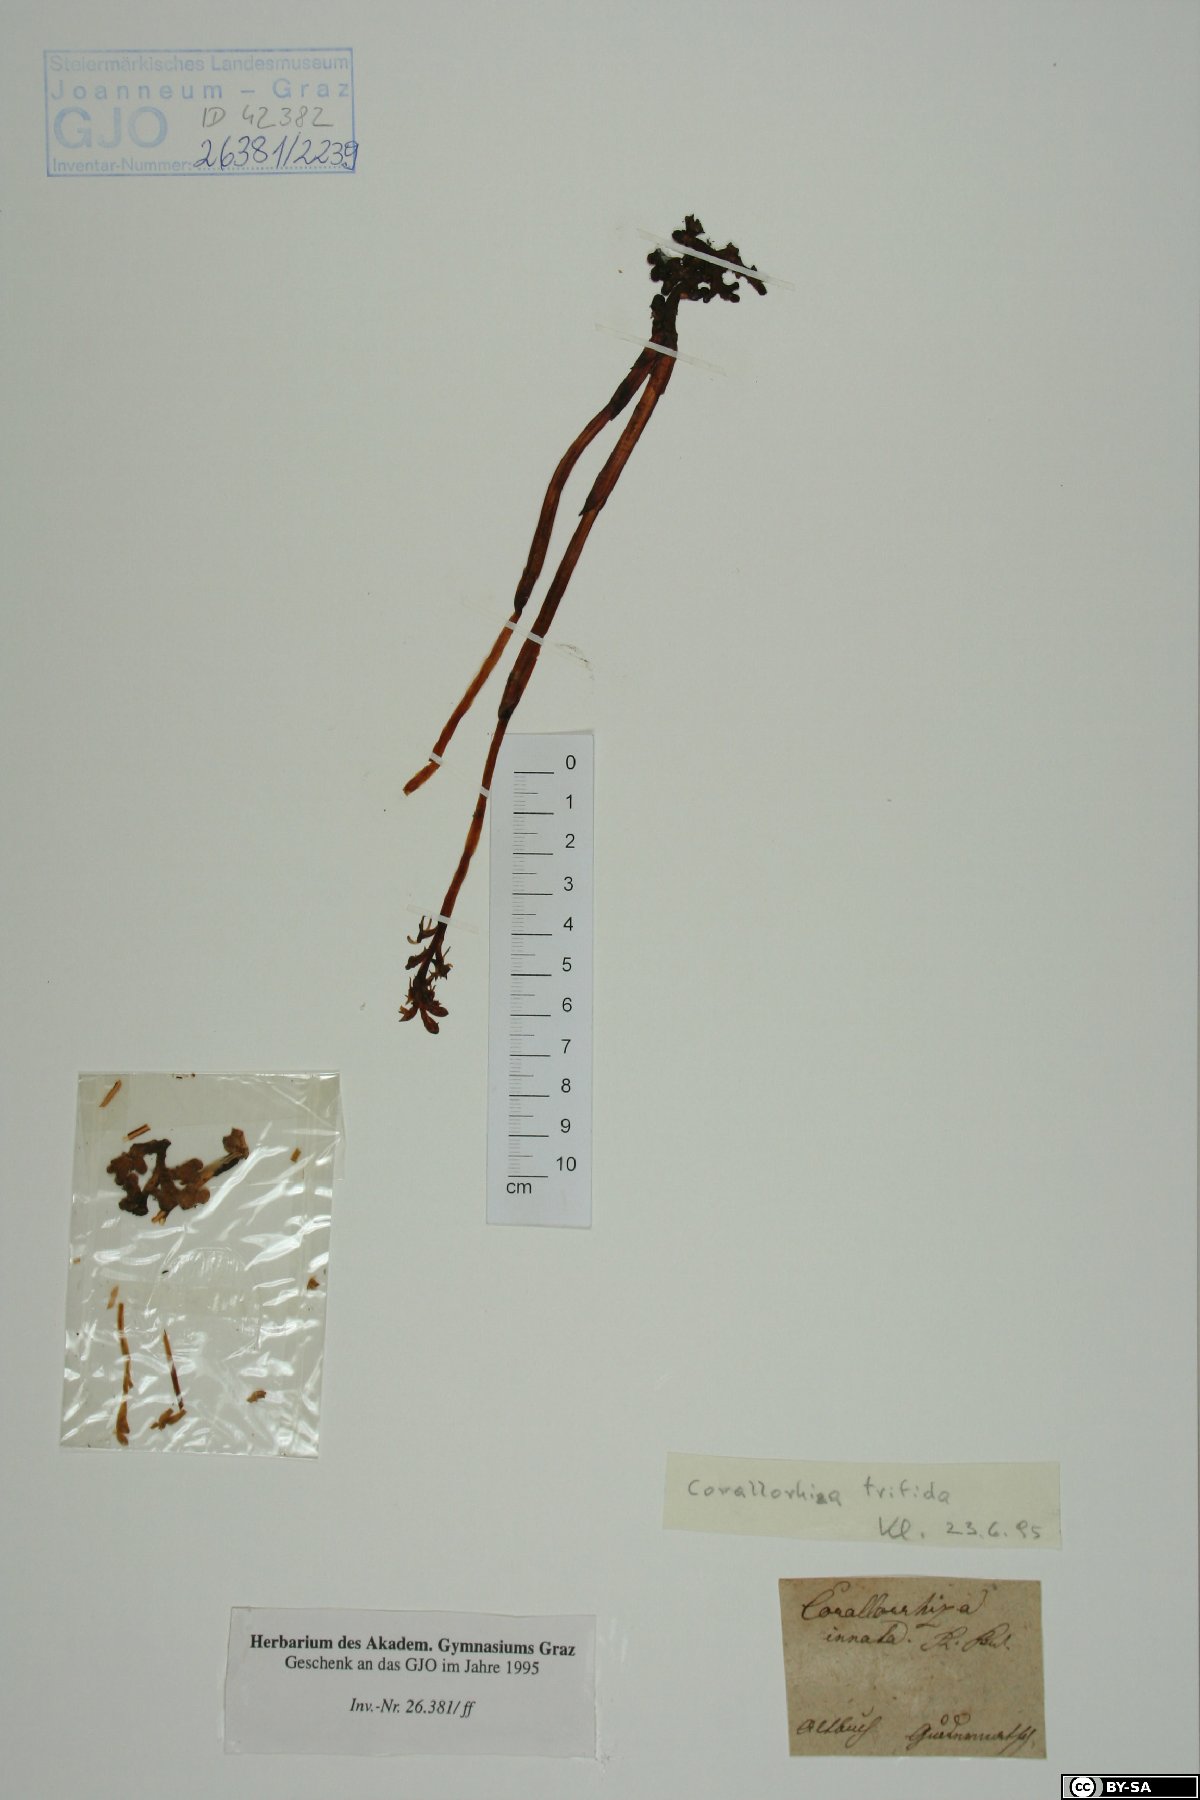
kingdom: Plantae
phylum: Tracheophyta
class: Liliopsida
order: Asparagales
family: Orchidaceae
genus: Corallorhiza
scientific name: Corallorhiza trifida
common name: Yellow coralroot
